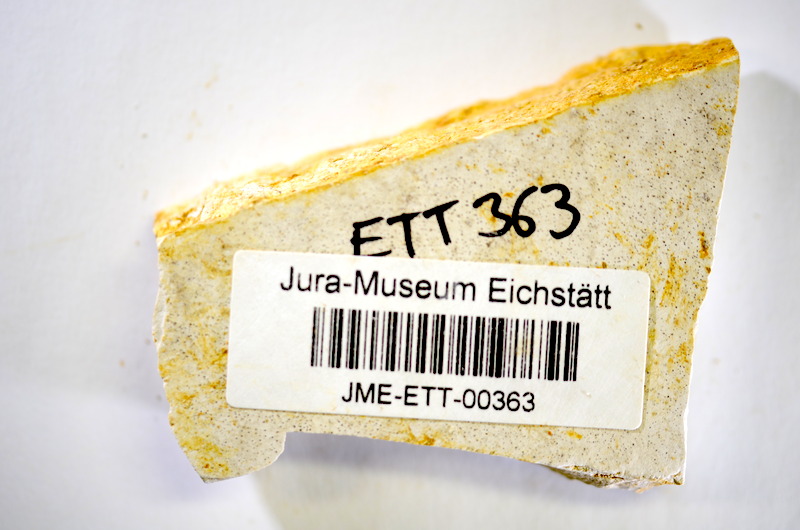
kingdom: Animalia
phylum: Chordata
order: Salmoniformes
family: Orthogonikleithridae
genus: Orthogonikleithrus
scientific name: Orthogonikleithrus hoelli
